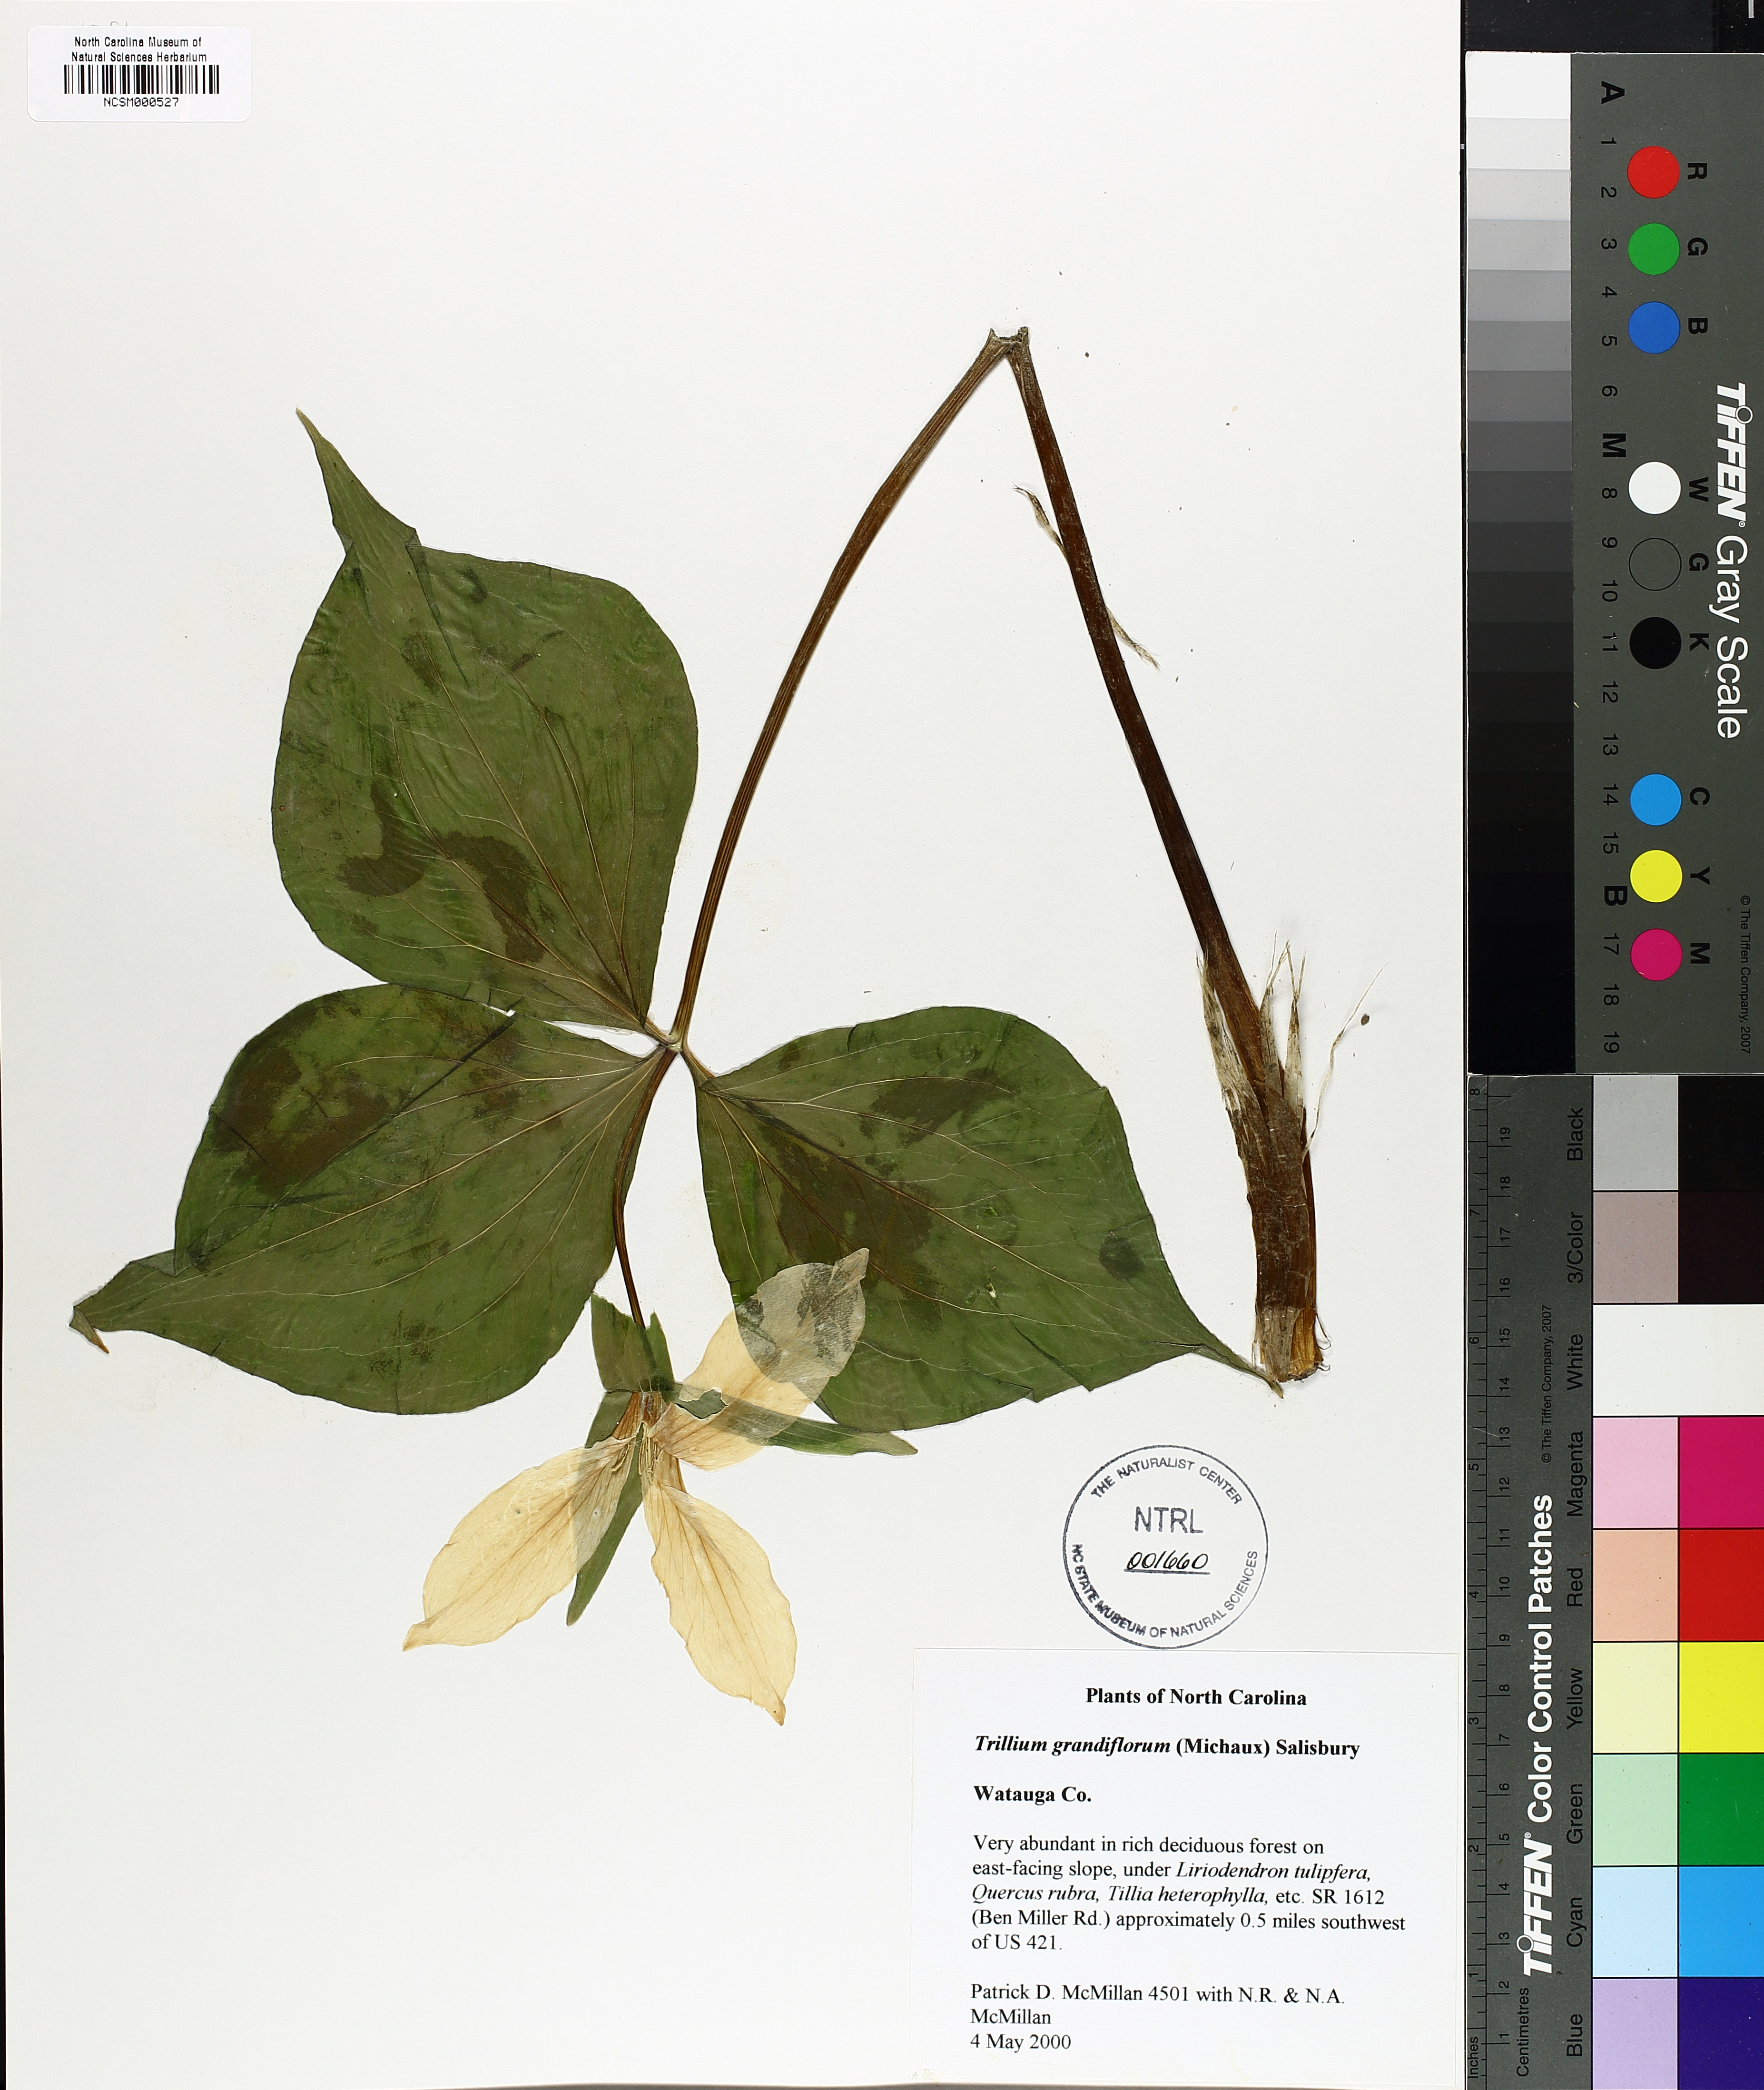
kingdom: Plantae
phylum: Tracheophyta
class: Liliopsida
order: Liliales
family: Melanthiaceae
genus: Trillium
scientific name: Trillium grandiflorum
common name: Great white trillium
